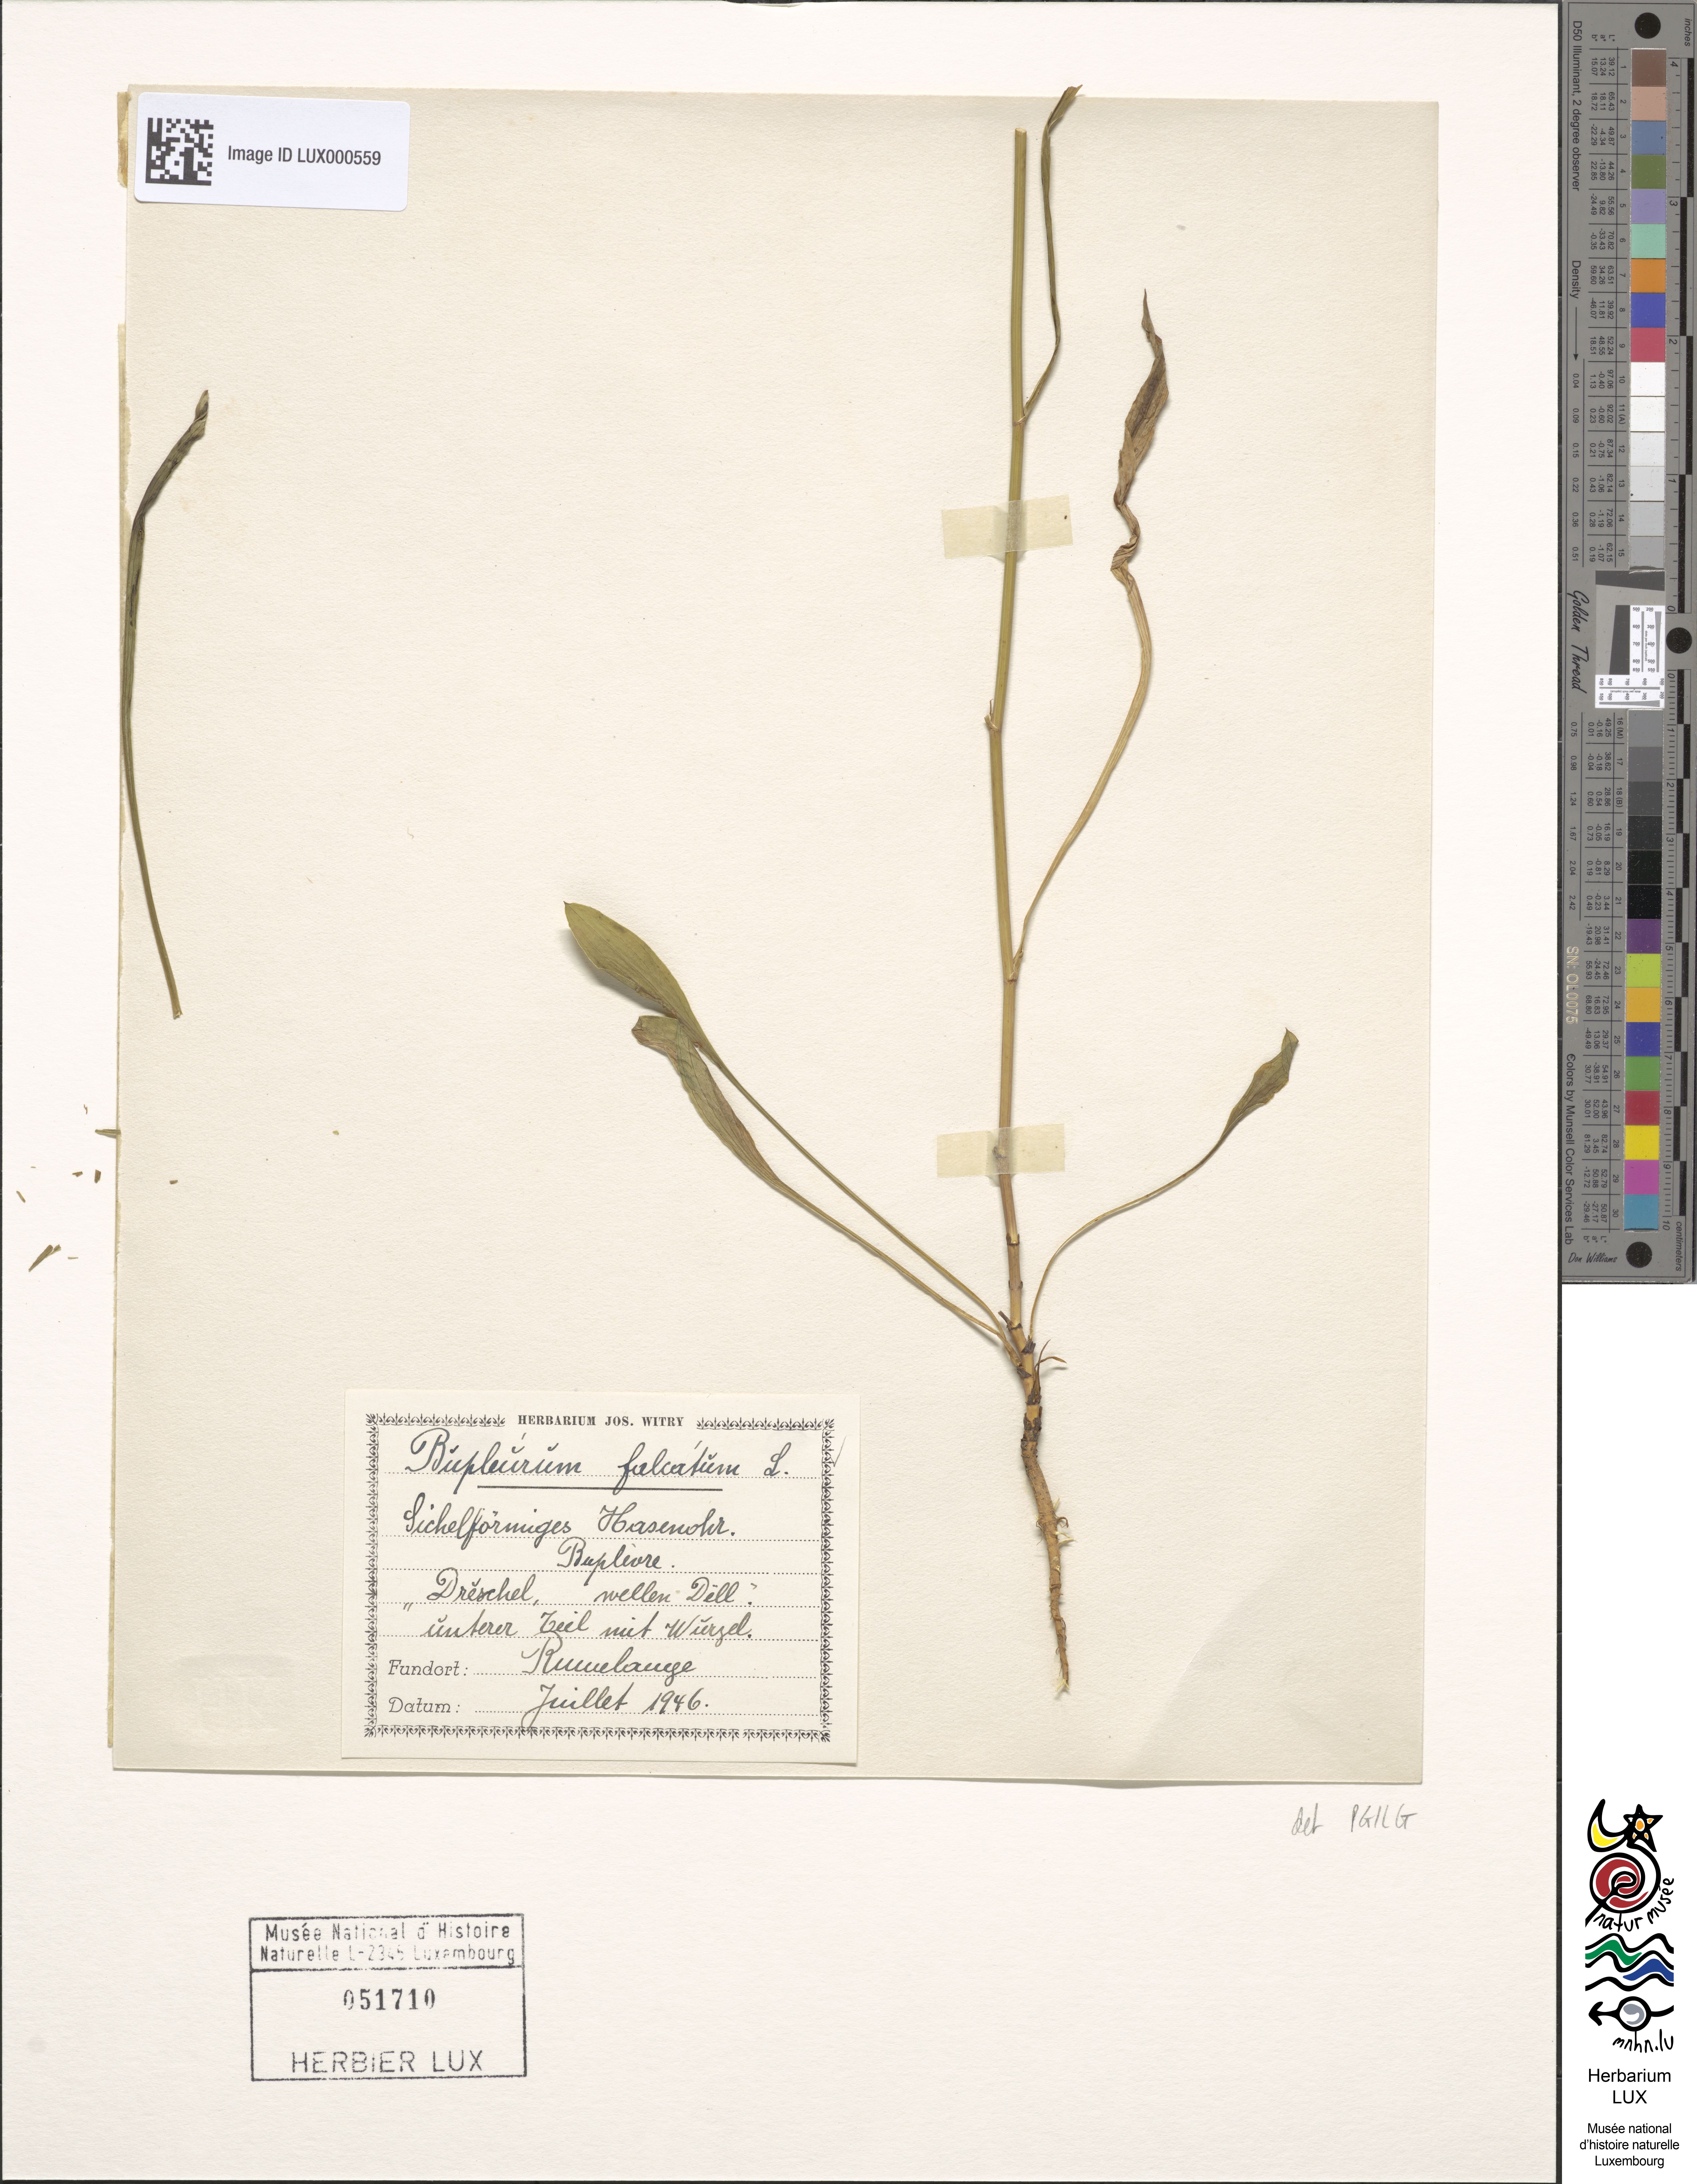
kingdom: Plantae
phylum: Tracheophyta
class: Magnoliopsida
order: Apiales
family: Apiaceae
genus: Bupleurum
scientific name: Bupleurum falcatum
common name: Sickle-leaved hare's-ear
